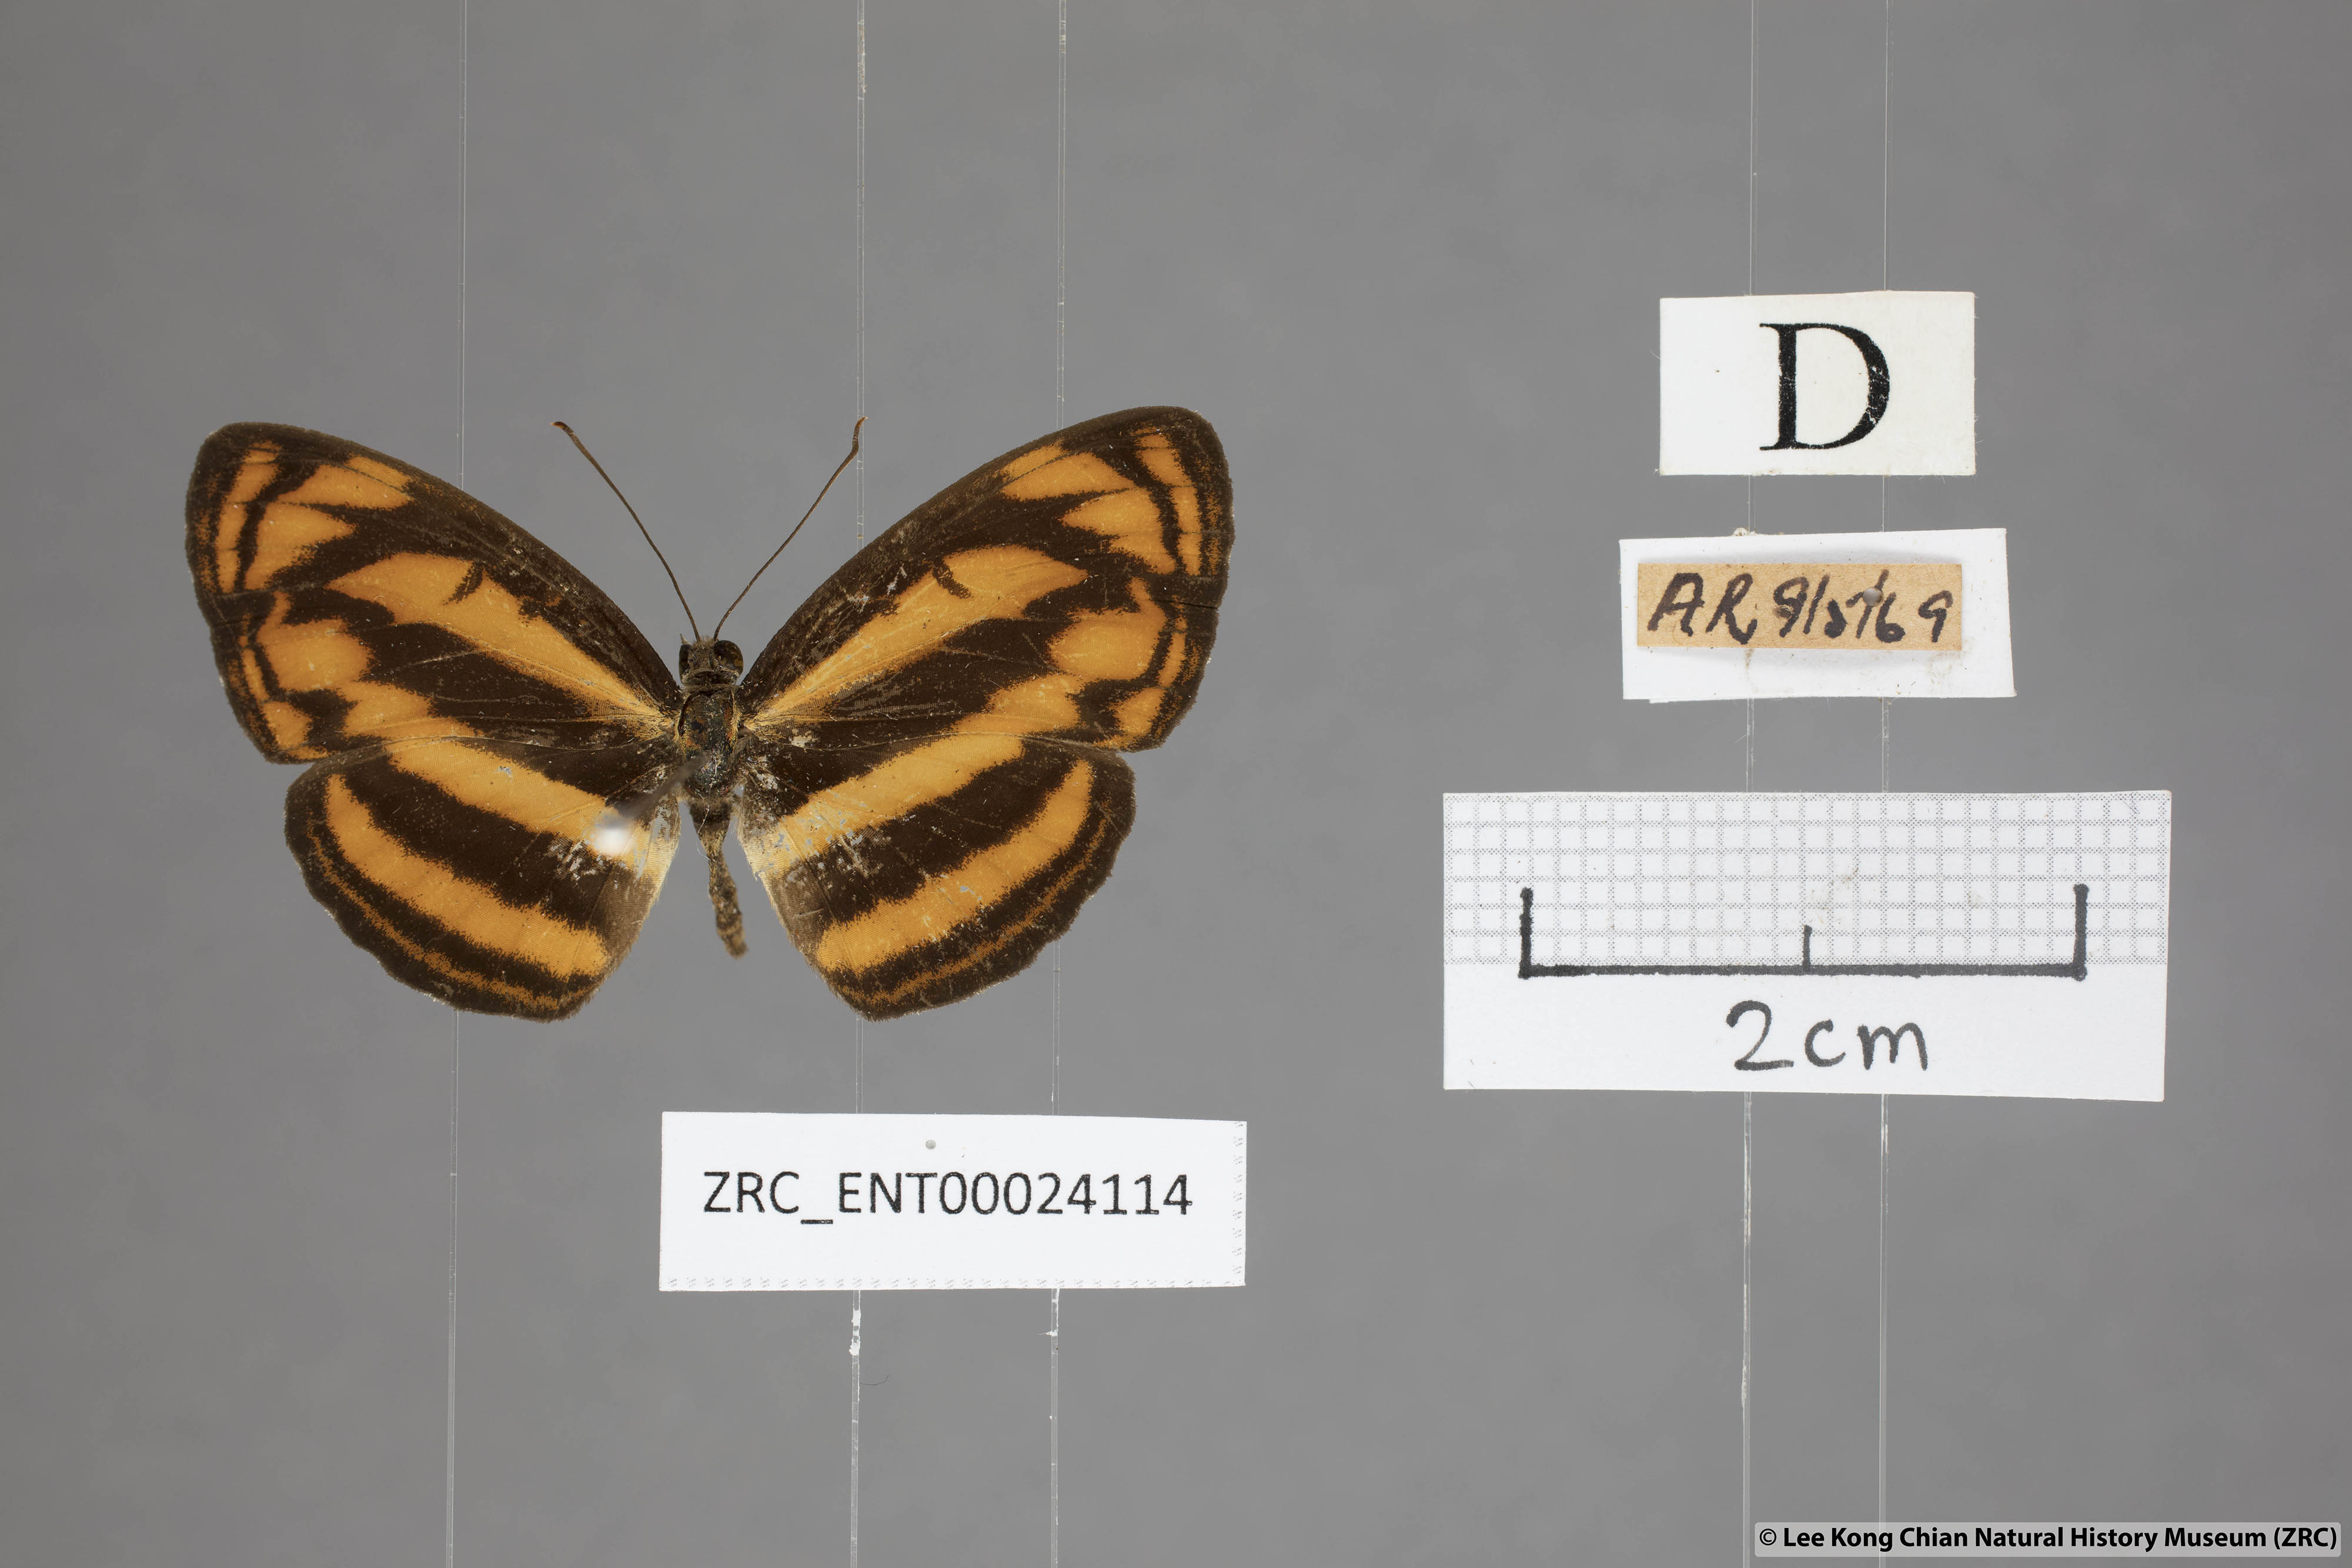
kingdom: Animalia
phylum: Arthropoda
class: Insecta
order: Lepidoptera
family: Nymphalidae
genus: Pantoporia
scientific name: Pantoporia aurelia
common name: Baby lascar
